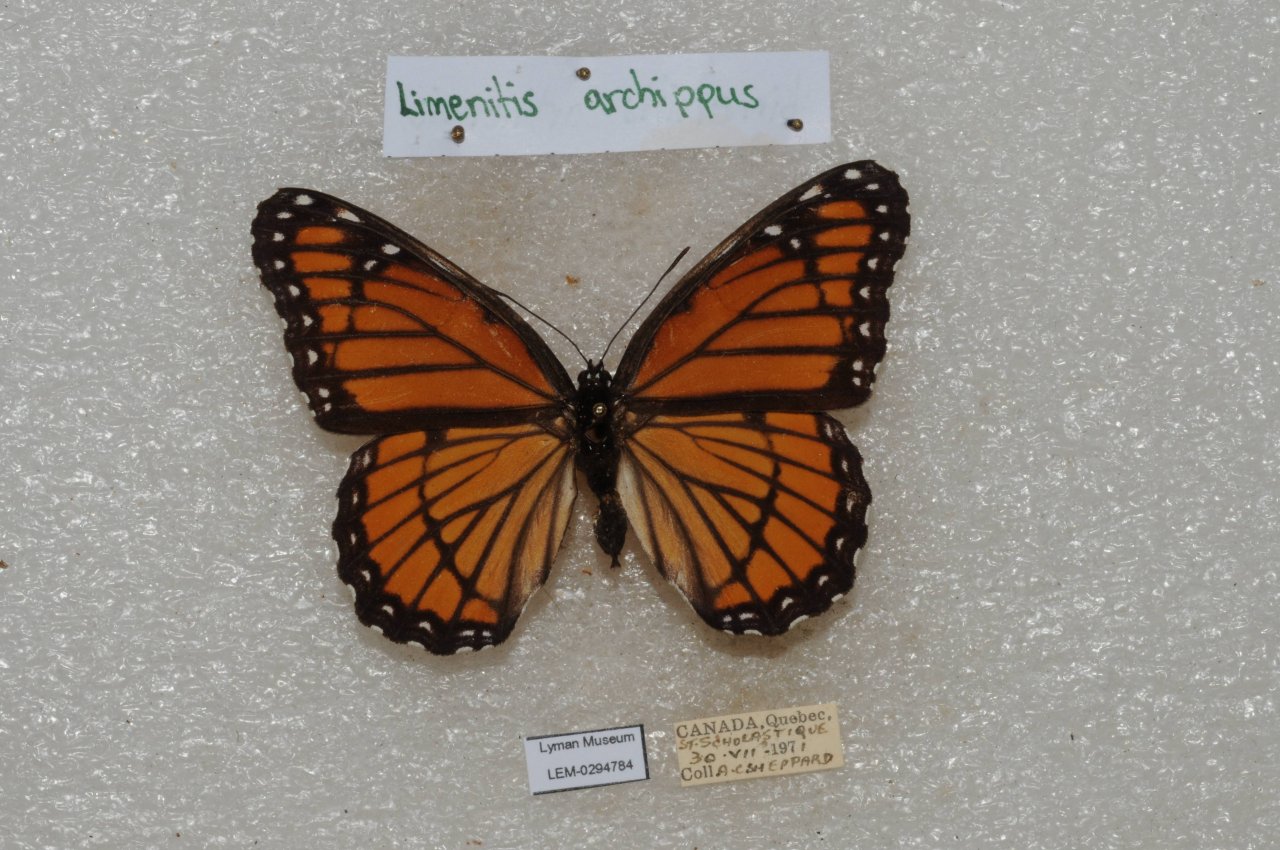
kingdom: Animalia
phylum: Arthropoda
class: Insecta
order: Lepidoptera
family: Nymphalidae
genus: Limenitis
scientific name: Limenitis archippus
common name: Viceroy
